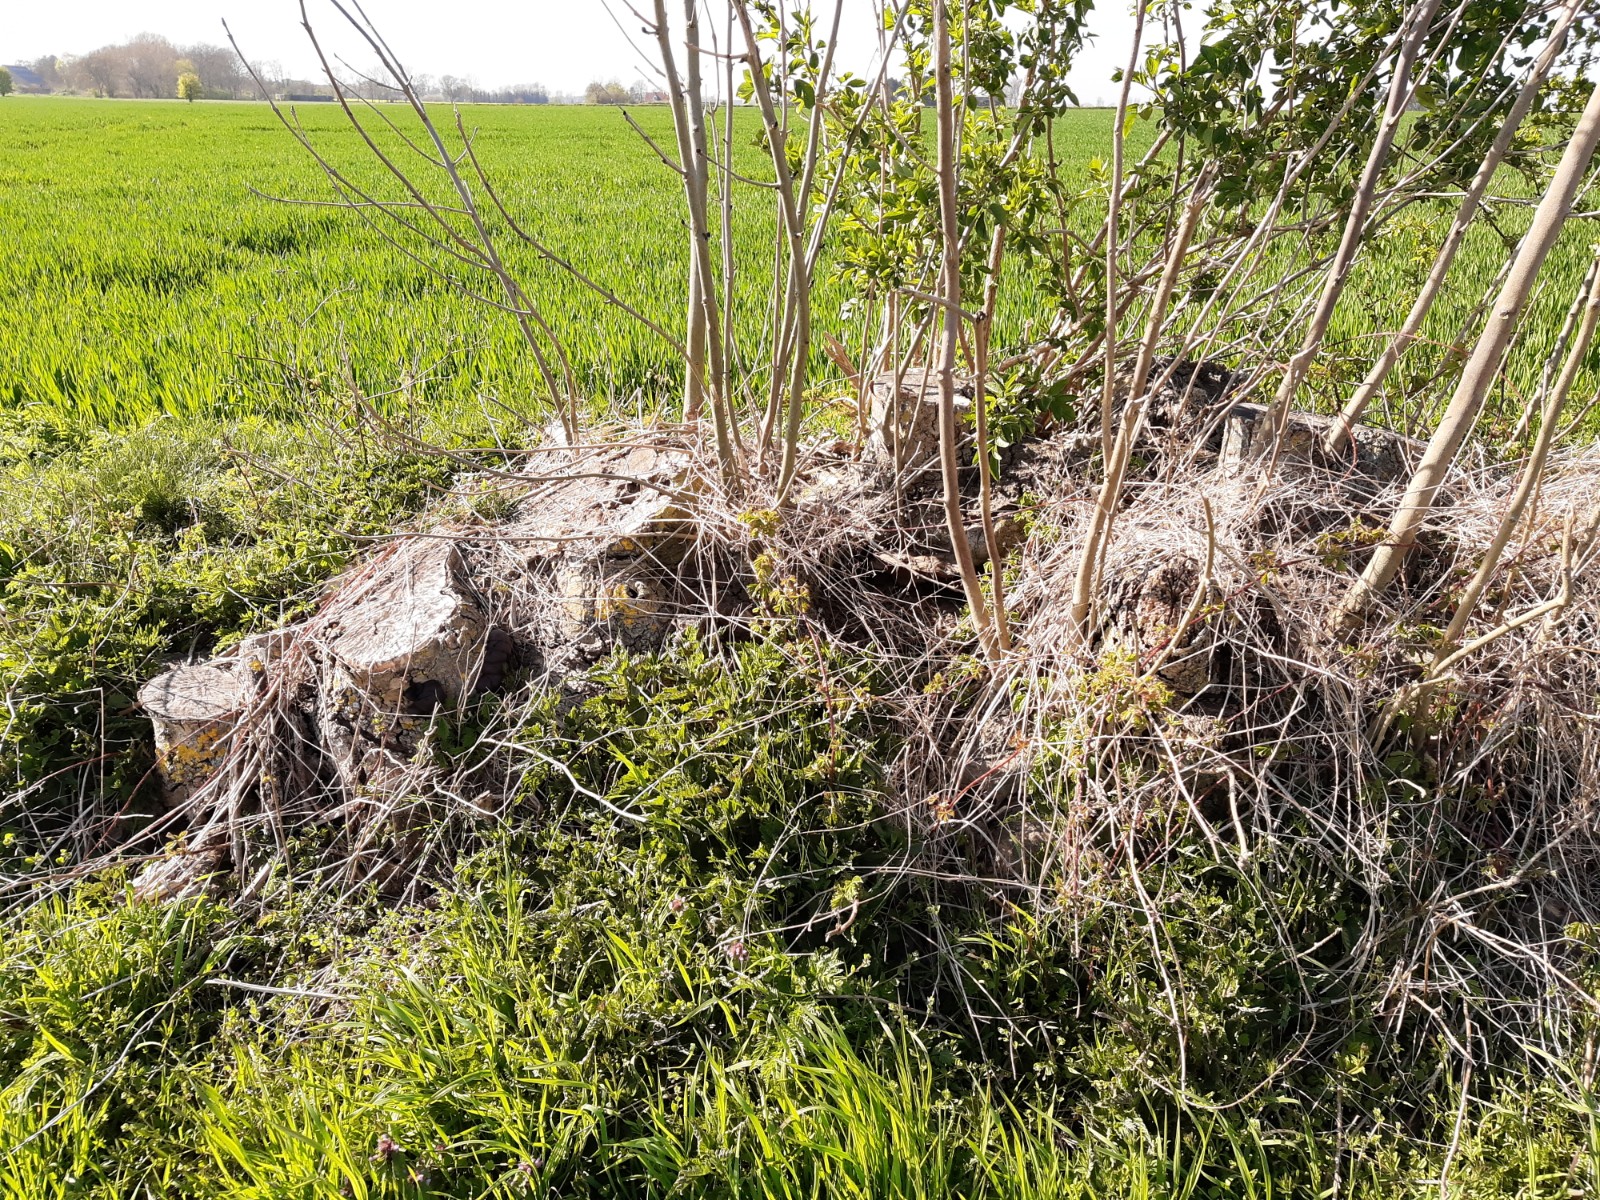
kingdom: Fungi
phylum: Ascomycota
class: Sordariomycetes
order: Xylariales
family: Hypoxylaceae
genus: Daldinia
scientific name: Daldinia concentrica
